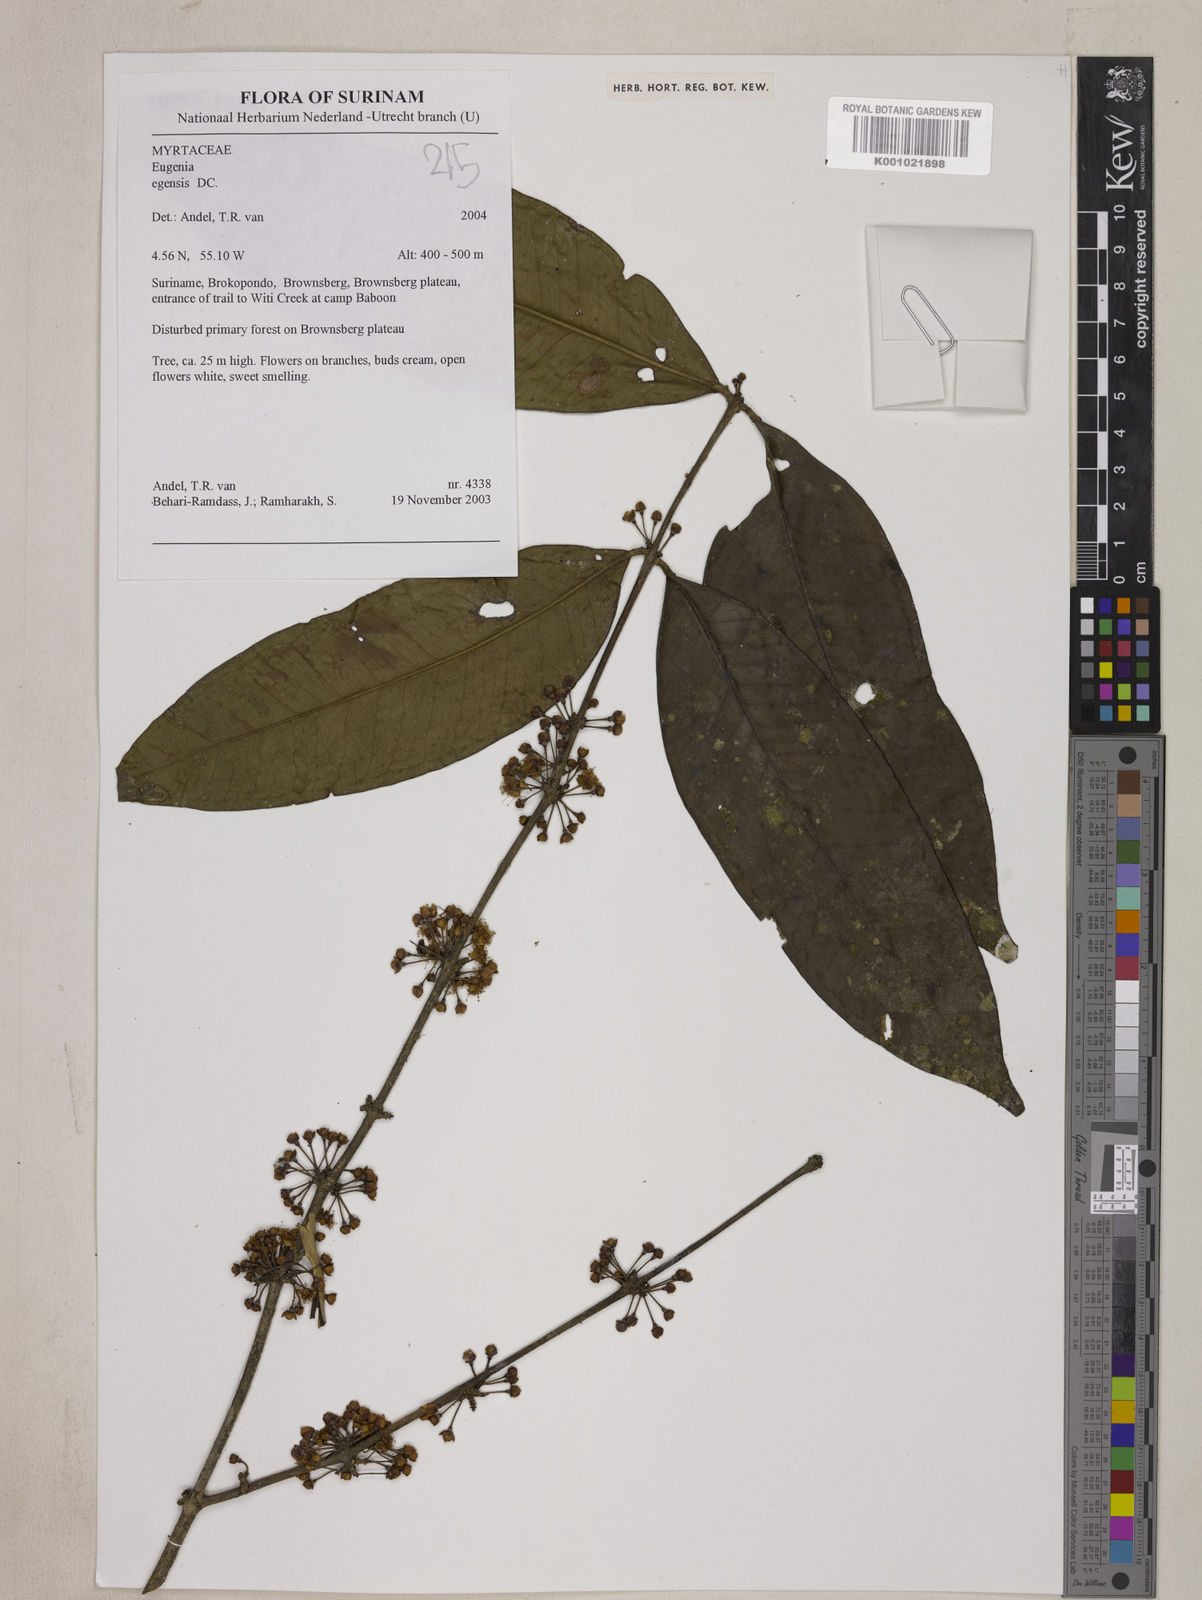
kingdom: Plantae
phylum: Tracheophyta
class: Magnoliopsida
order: Myrtales
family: Myrtaceae
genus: Eugenia
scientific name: Eugenia egensis
